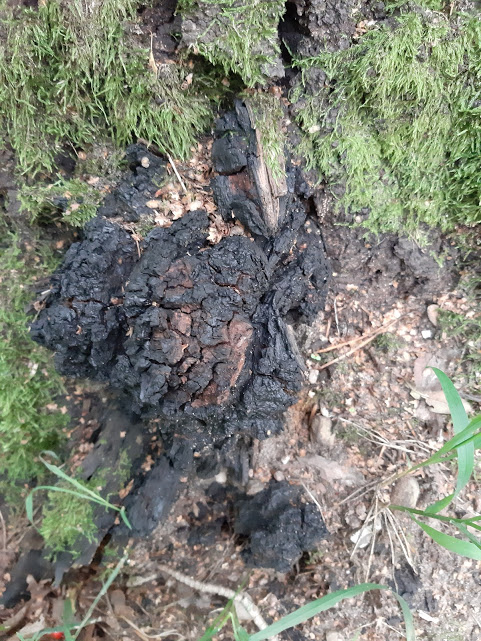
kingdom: Fungi
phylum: Basidiomycota
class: Agaricomycetes
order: Hymenochaetales
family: Hymenochaetaceae
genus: Inonotus
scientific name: Inonotus obliquus
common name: birke-spejlporesvamp
